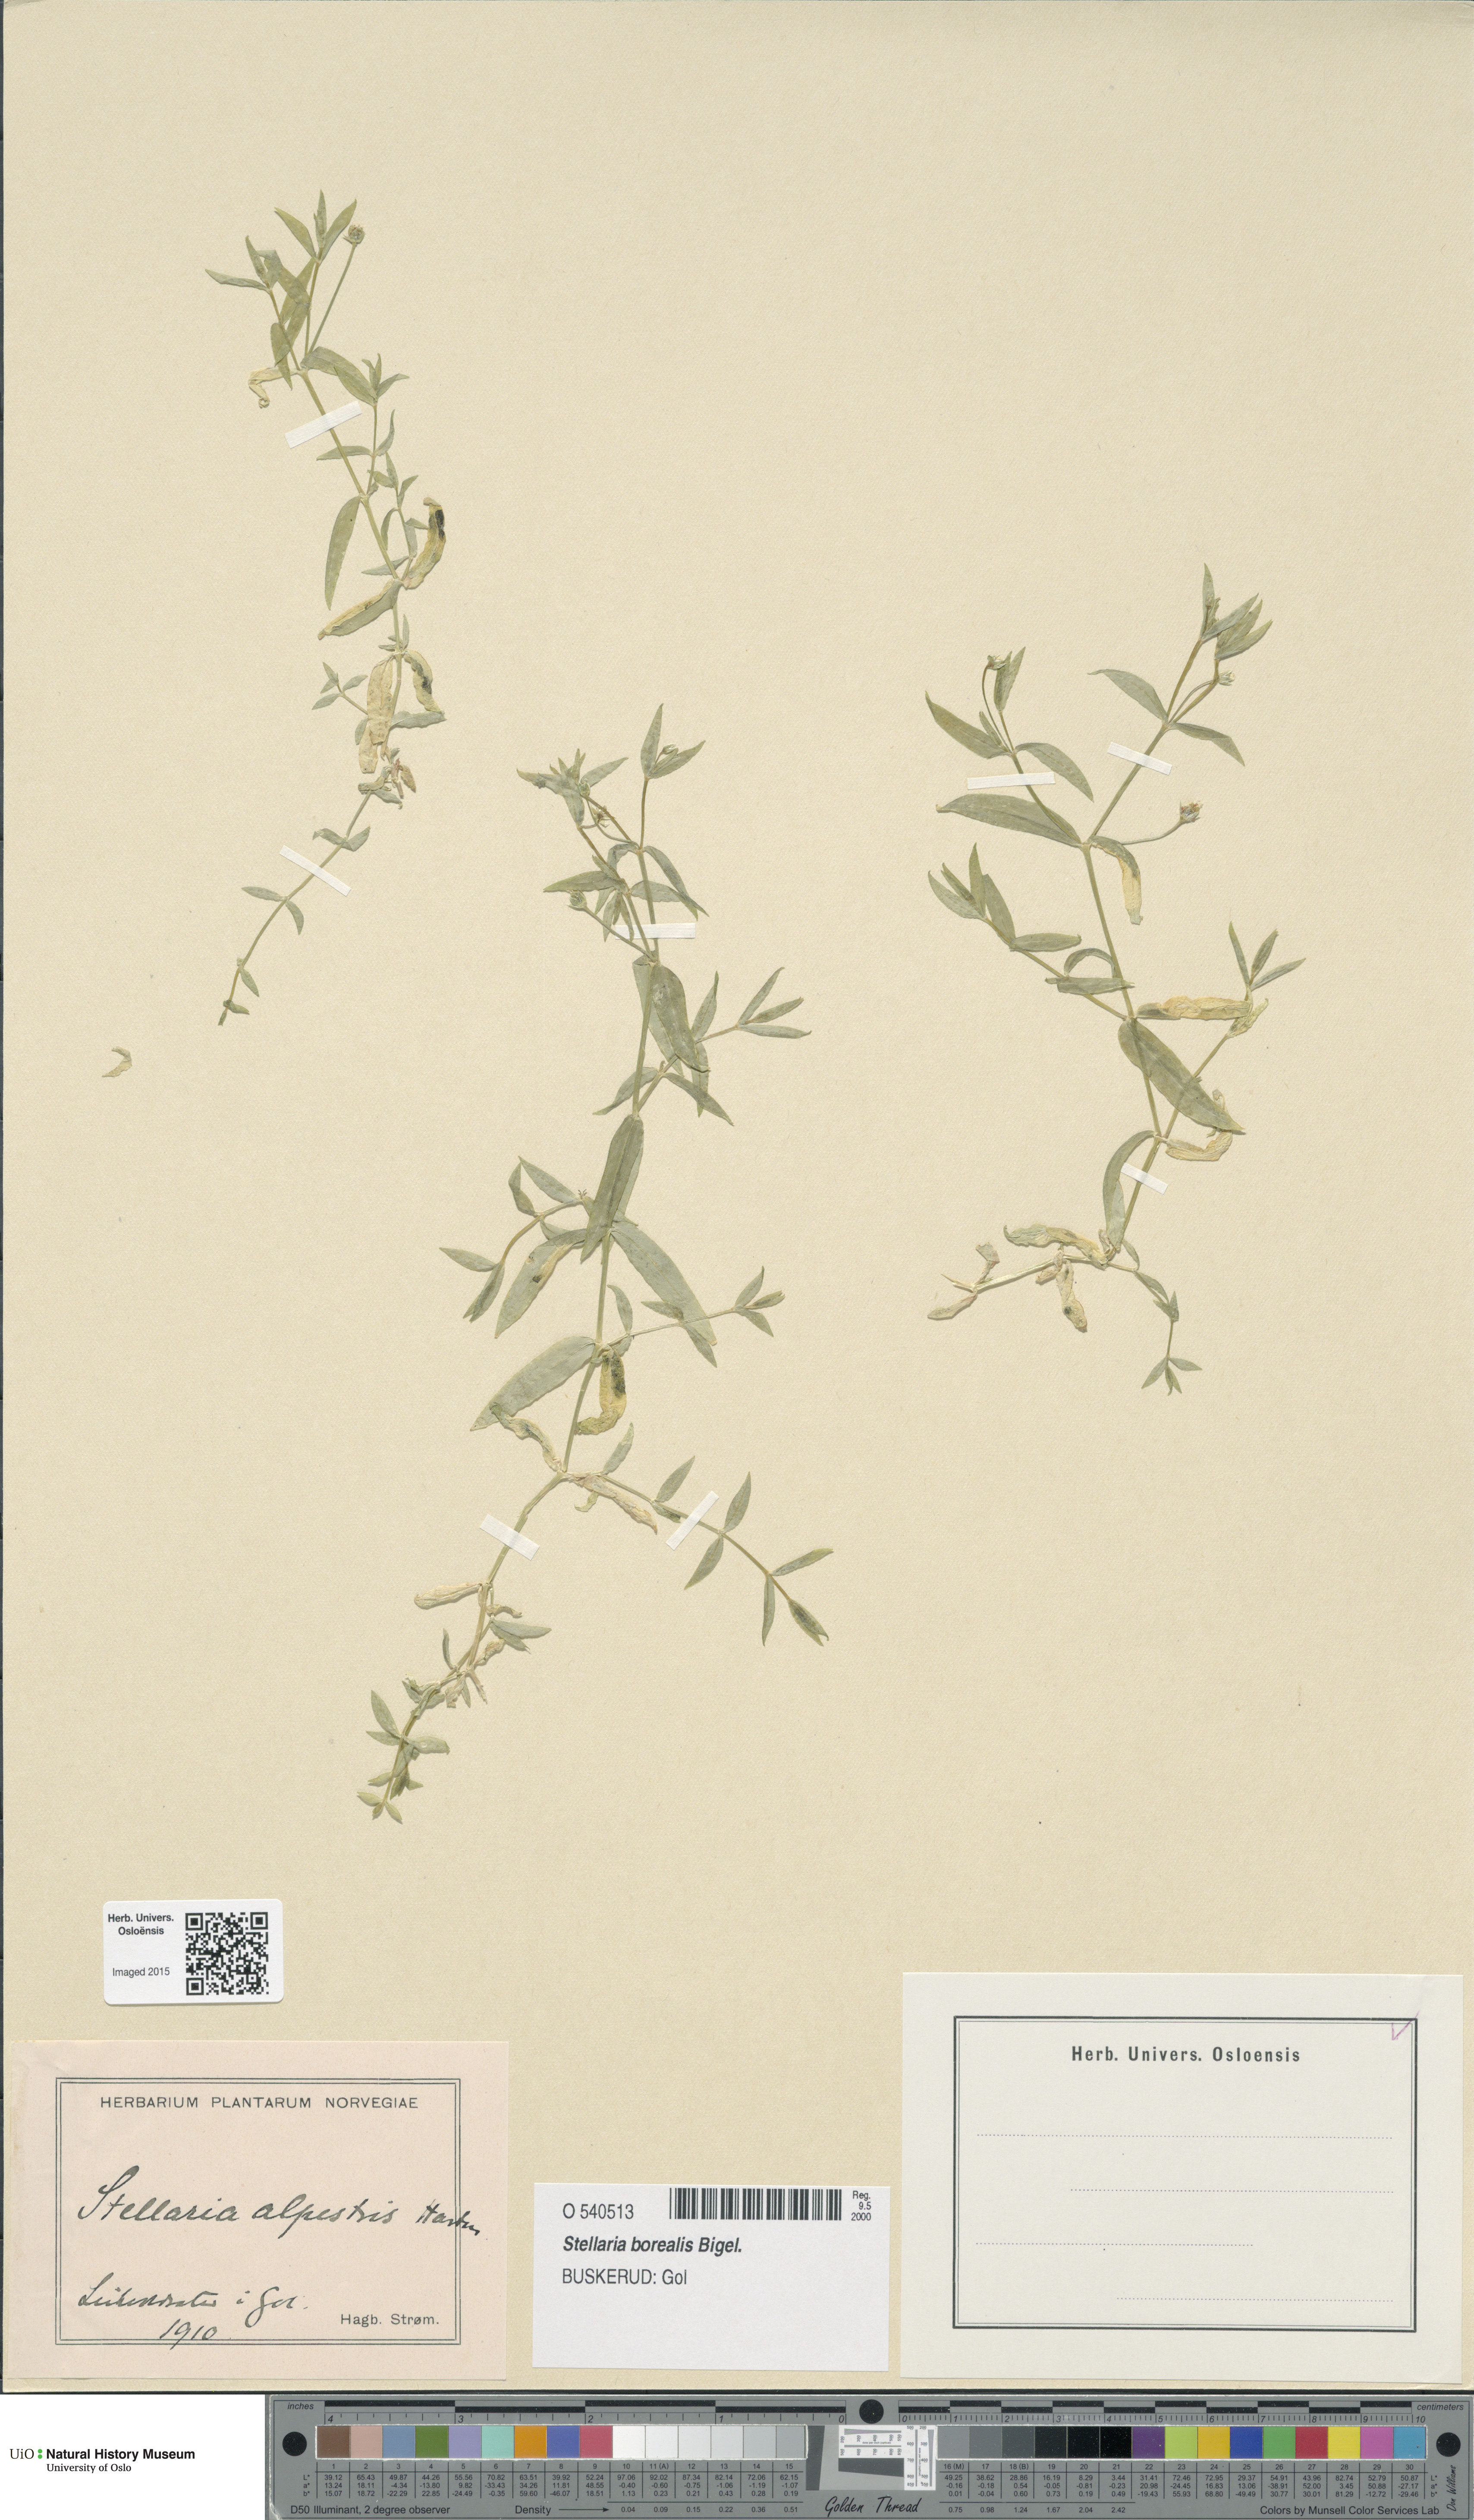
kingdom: Plantae
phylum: Tracheophyta
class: Magnoliopsida
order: Caryophyllales
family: Caryophyllaceae
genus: Stellaria
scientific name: Stellaria borealis
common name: Boreal starwort
